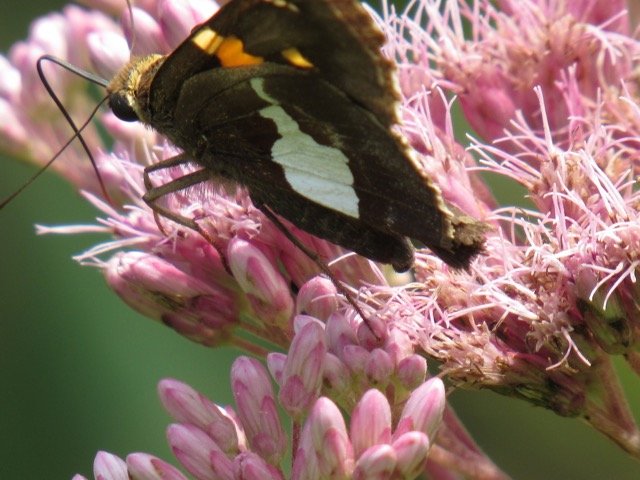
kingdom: Animalia
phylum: Arthropoda
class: Insecta
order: Lepidoptera
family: Hesperiidae
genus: Epargyreus
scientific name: Epargyreus clarus
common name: Silver-spotted Skipper
